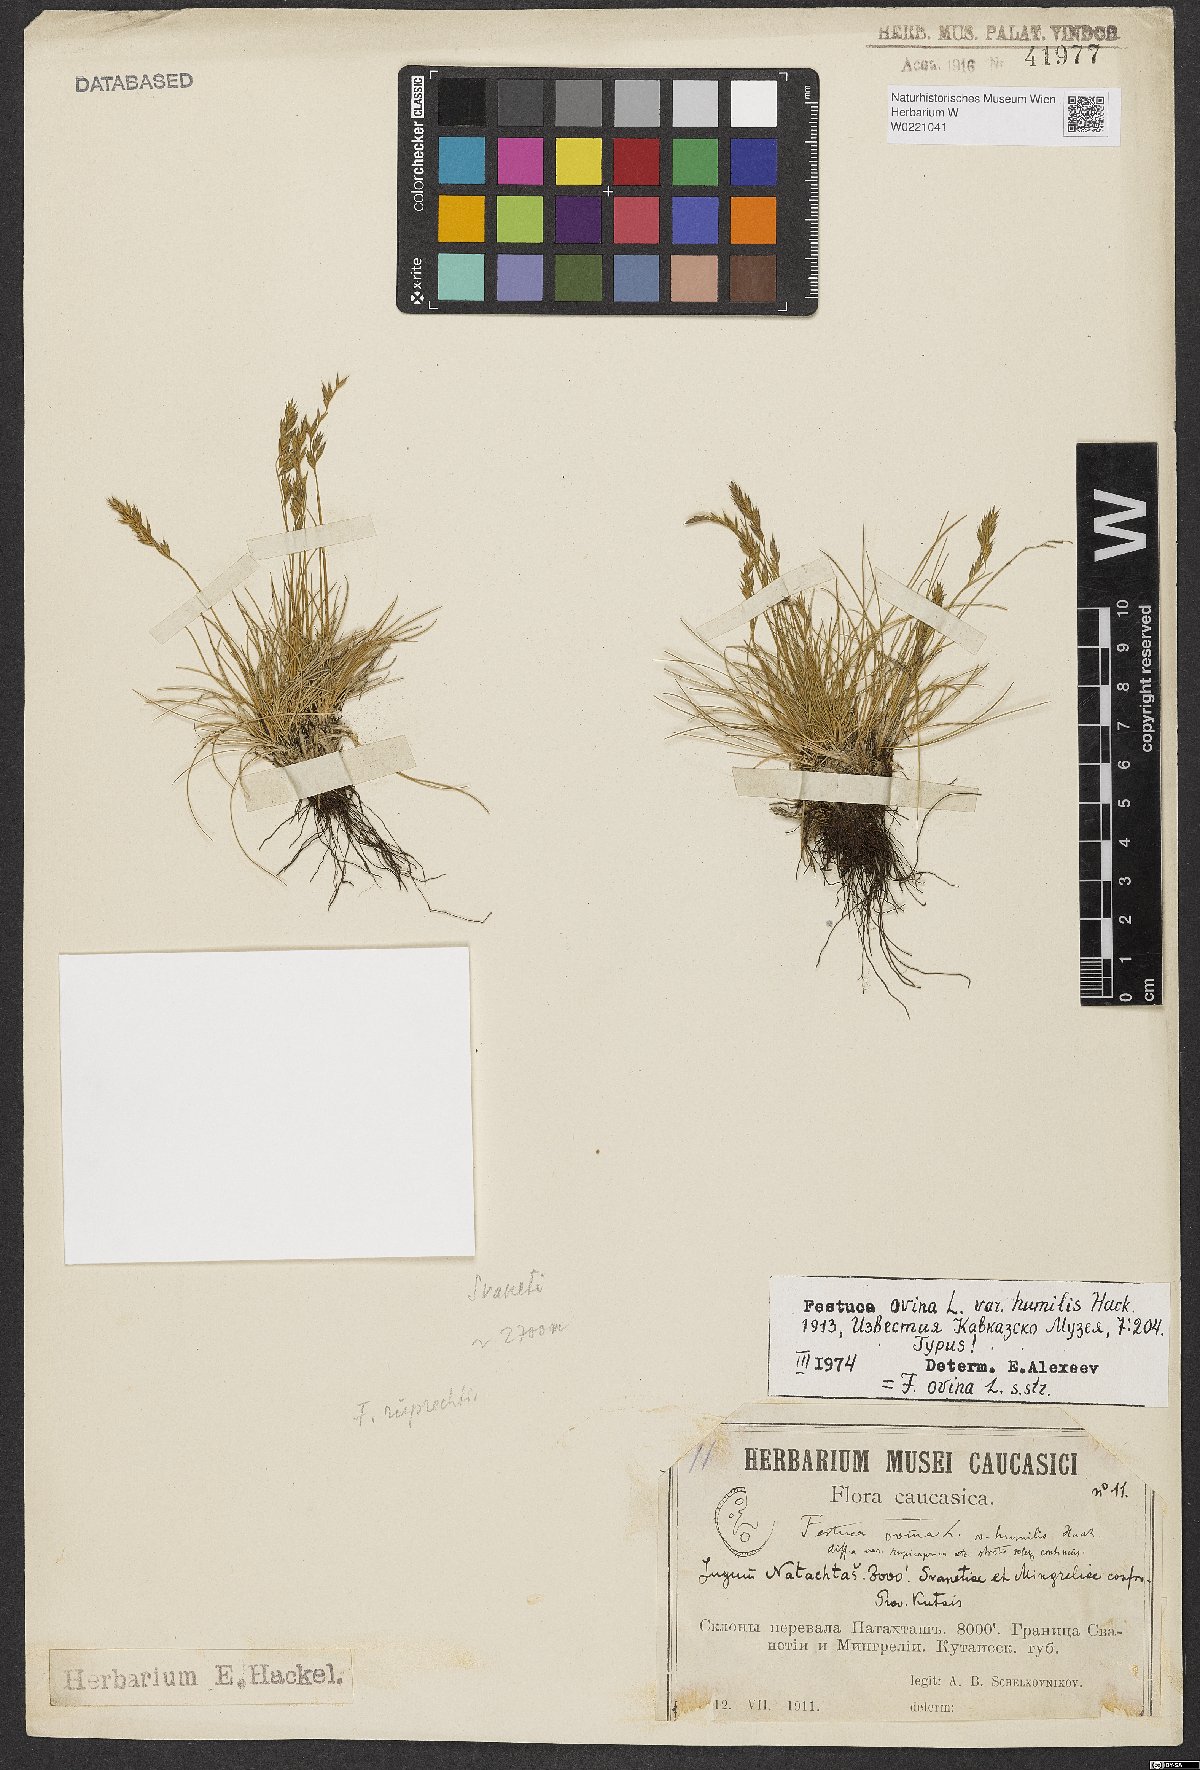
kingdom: Plantae
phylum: Tracheophyta
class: Liliopsida
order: Poales
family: Poaceae
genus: Festuca
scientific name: Festuca ovina
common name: Sheep fescue
